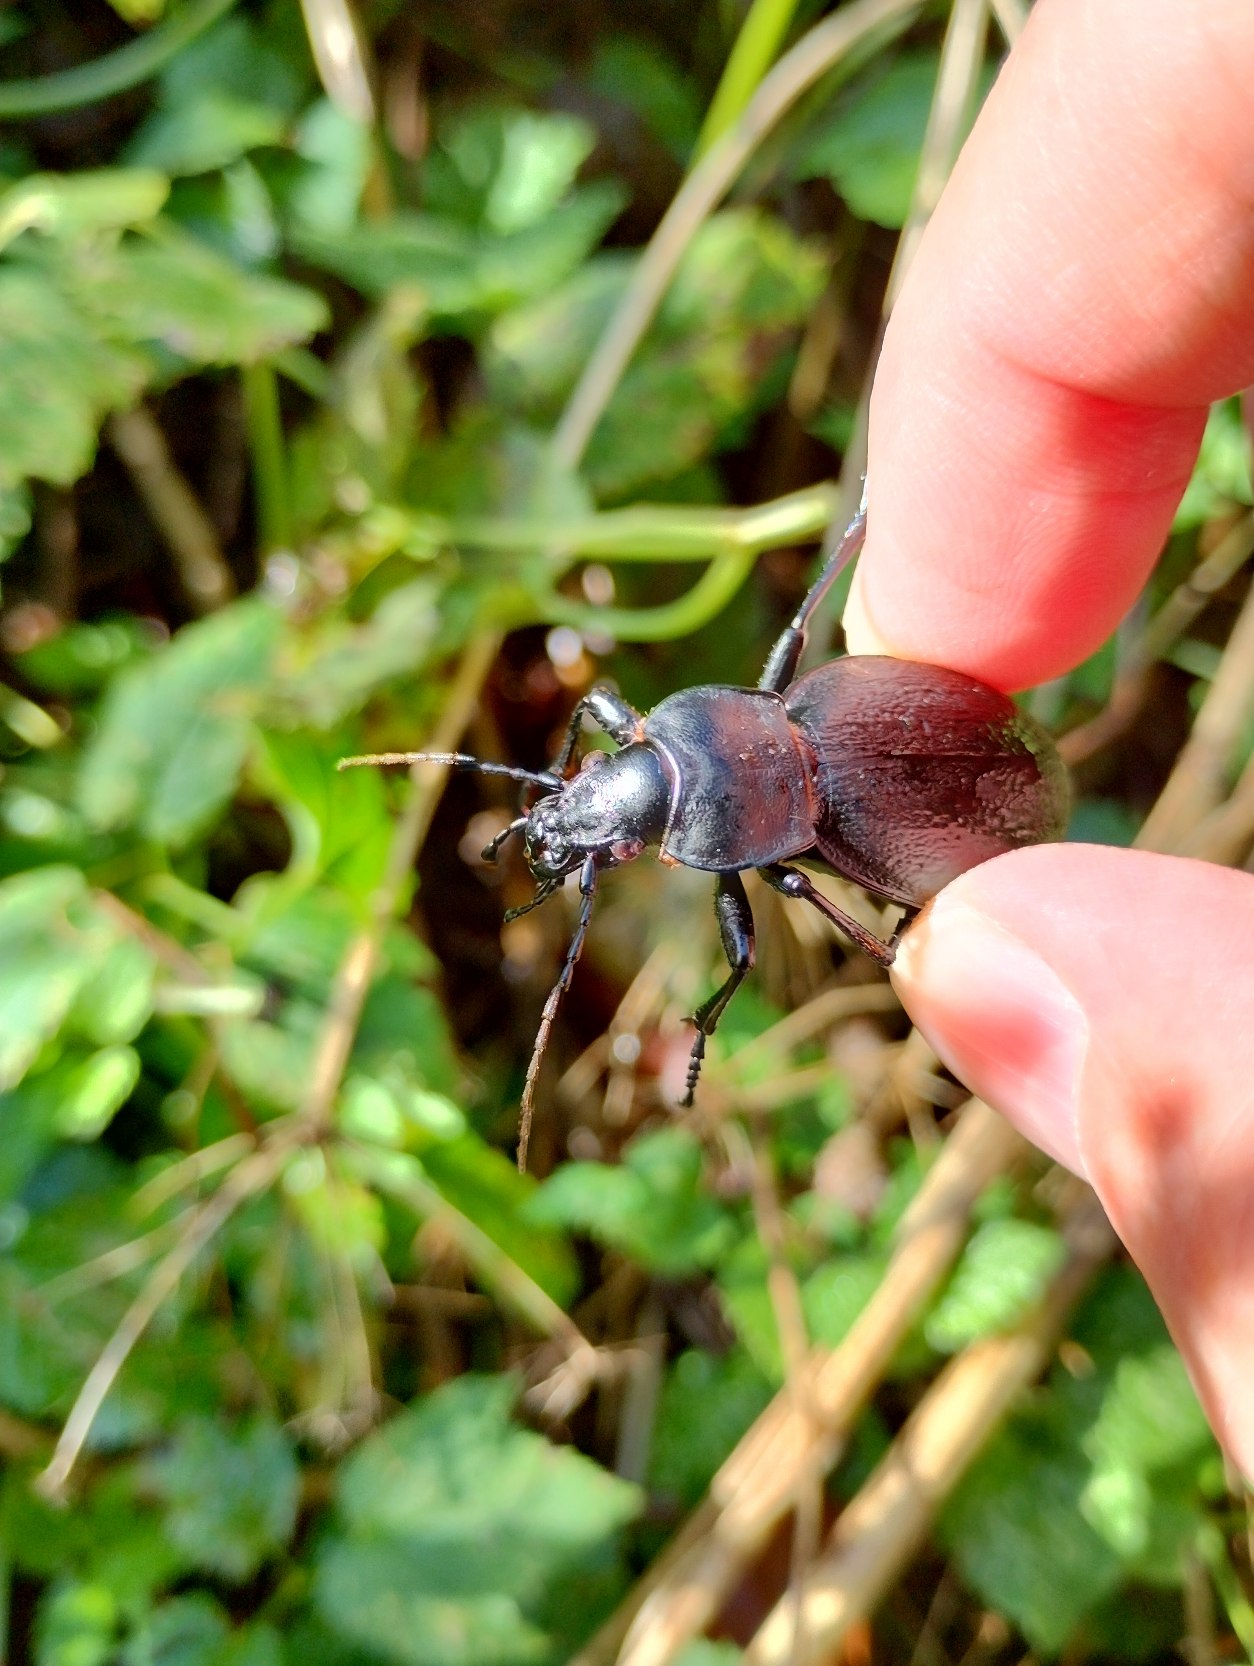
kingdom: Animalia
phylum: Arthropoda
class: Insecta
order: Coleoptera
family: Carabidae
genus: Carabus
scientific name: Carabus coriaceus
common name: Læderløber
